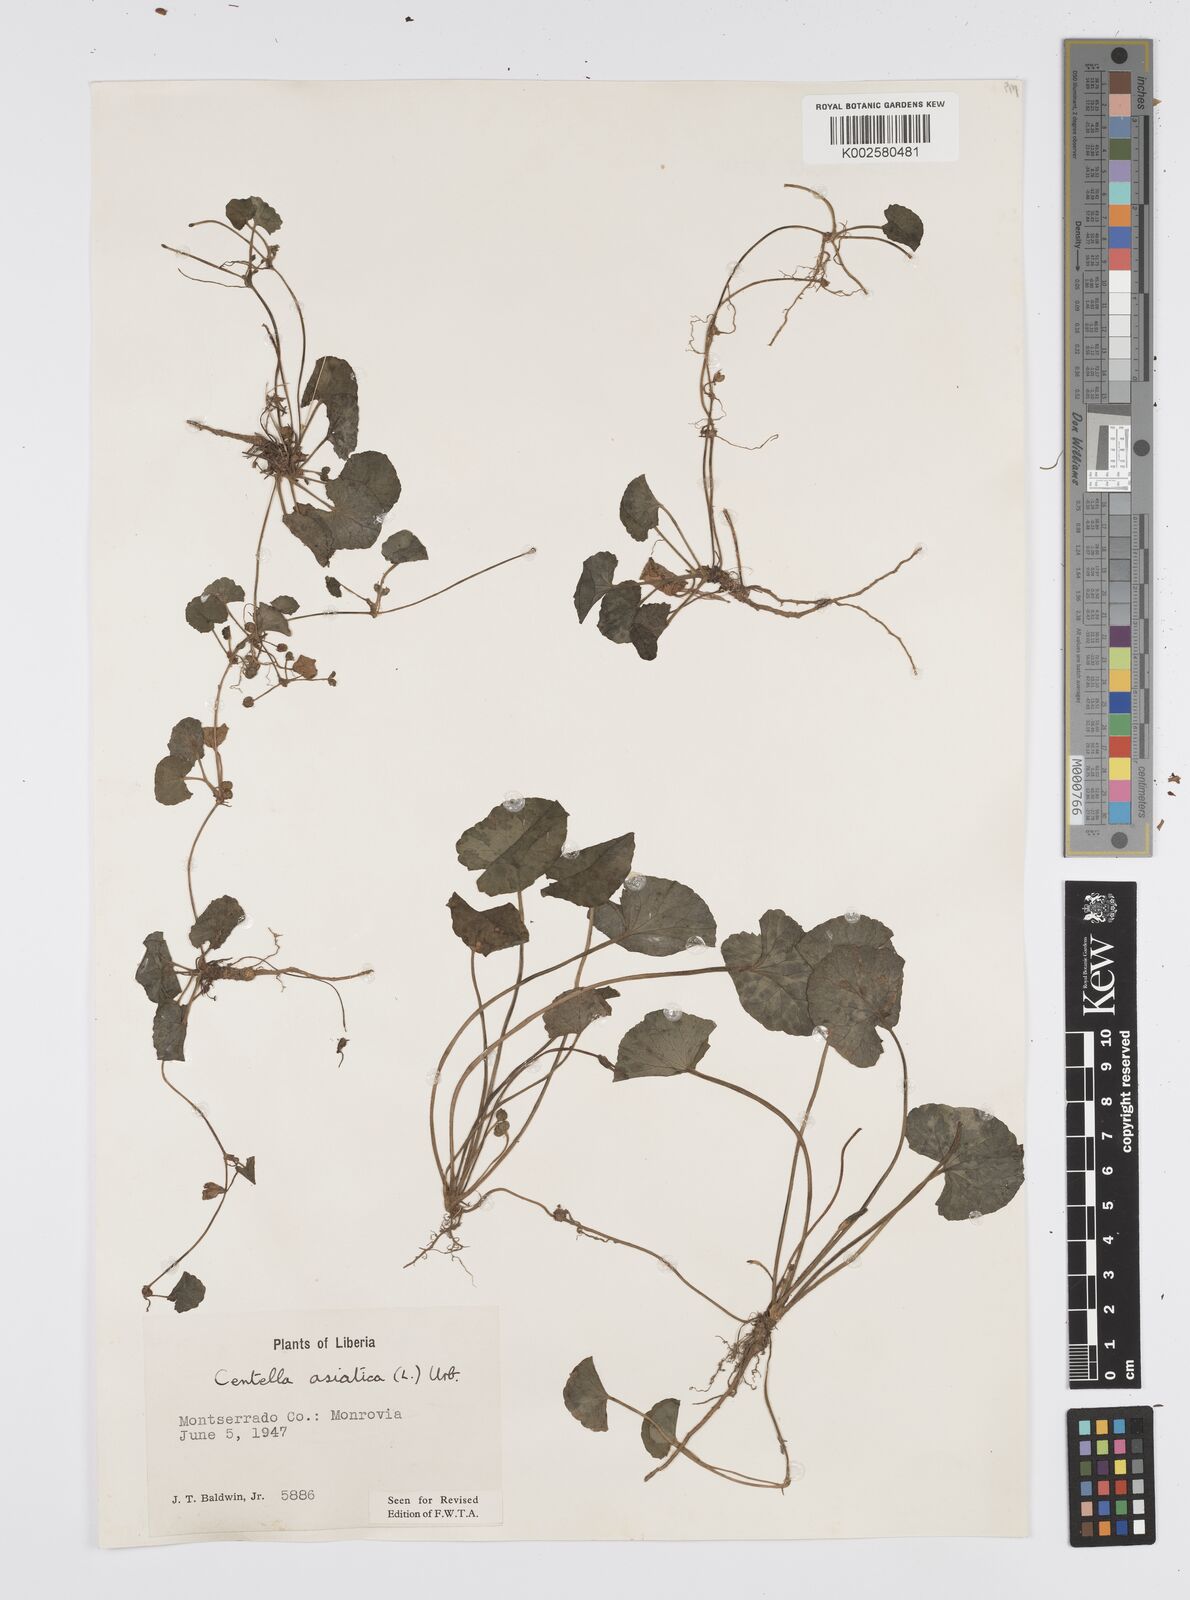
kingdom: Plantae
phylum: Tracheophyta
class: Magnoliopsida
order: Apiales
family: Apiaceae
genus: Centella
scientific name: Centella asiatica
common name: Spadeleaf
